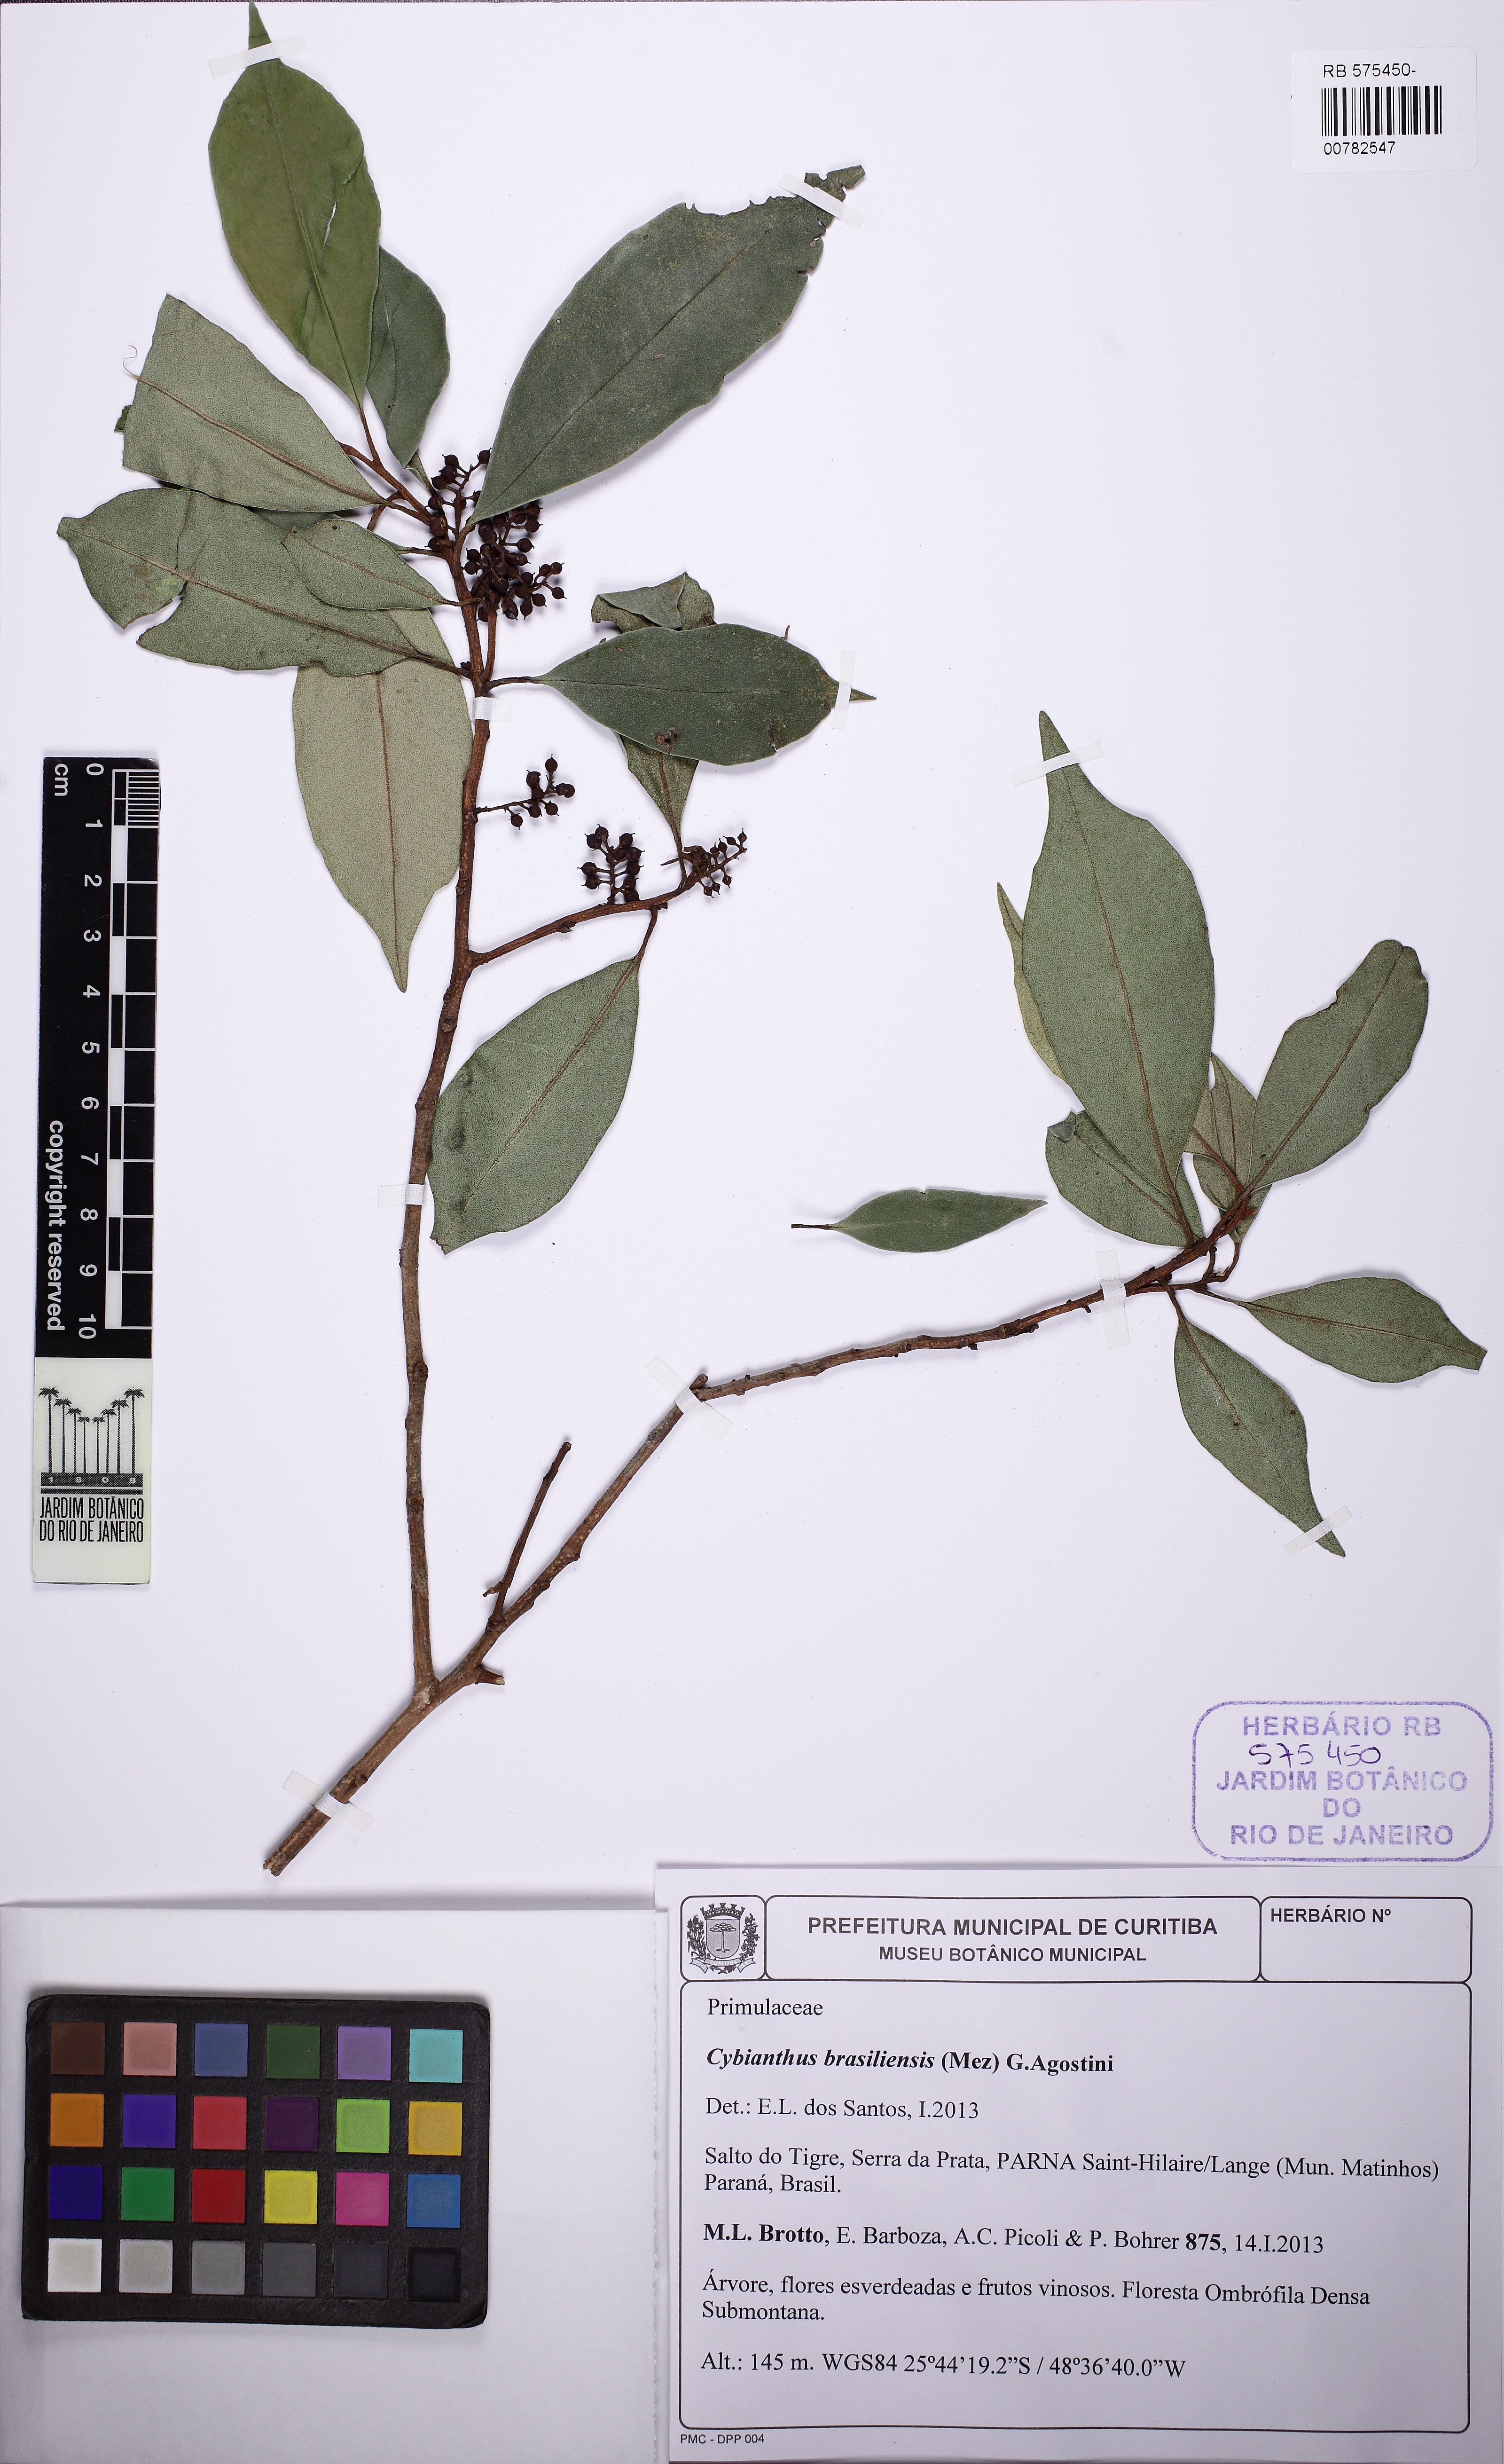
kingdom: Plantae
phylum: Tracheophyta
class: Magnoliopsida
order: Ericales
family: Primulaceae
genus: Cybianthus
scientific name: Cybianthus peruvianus
